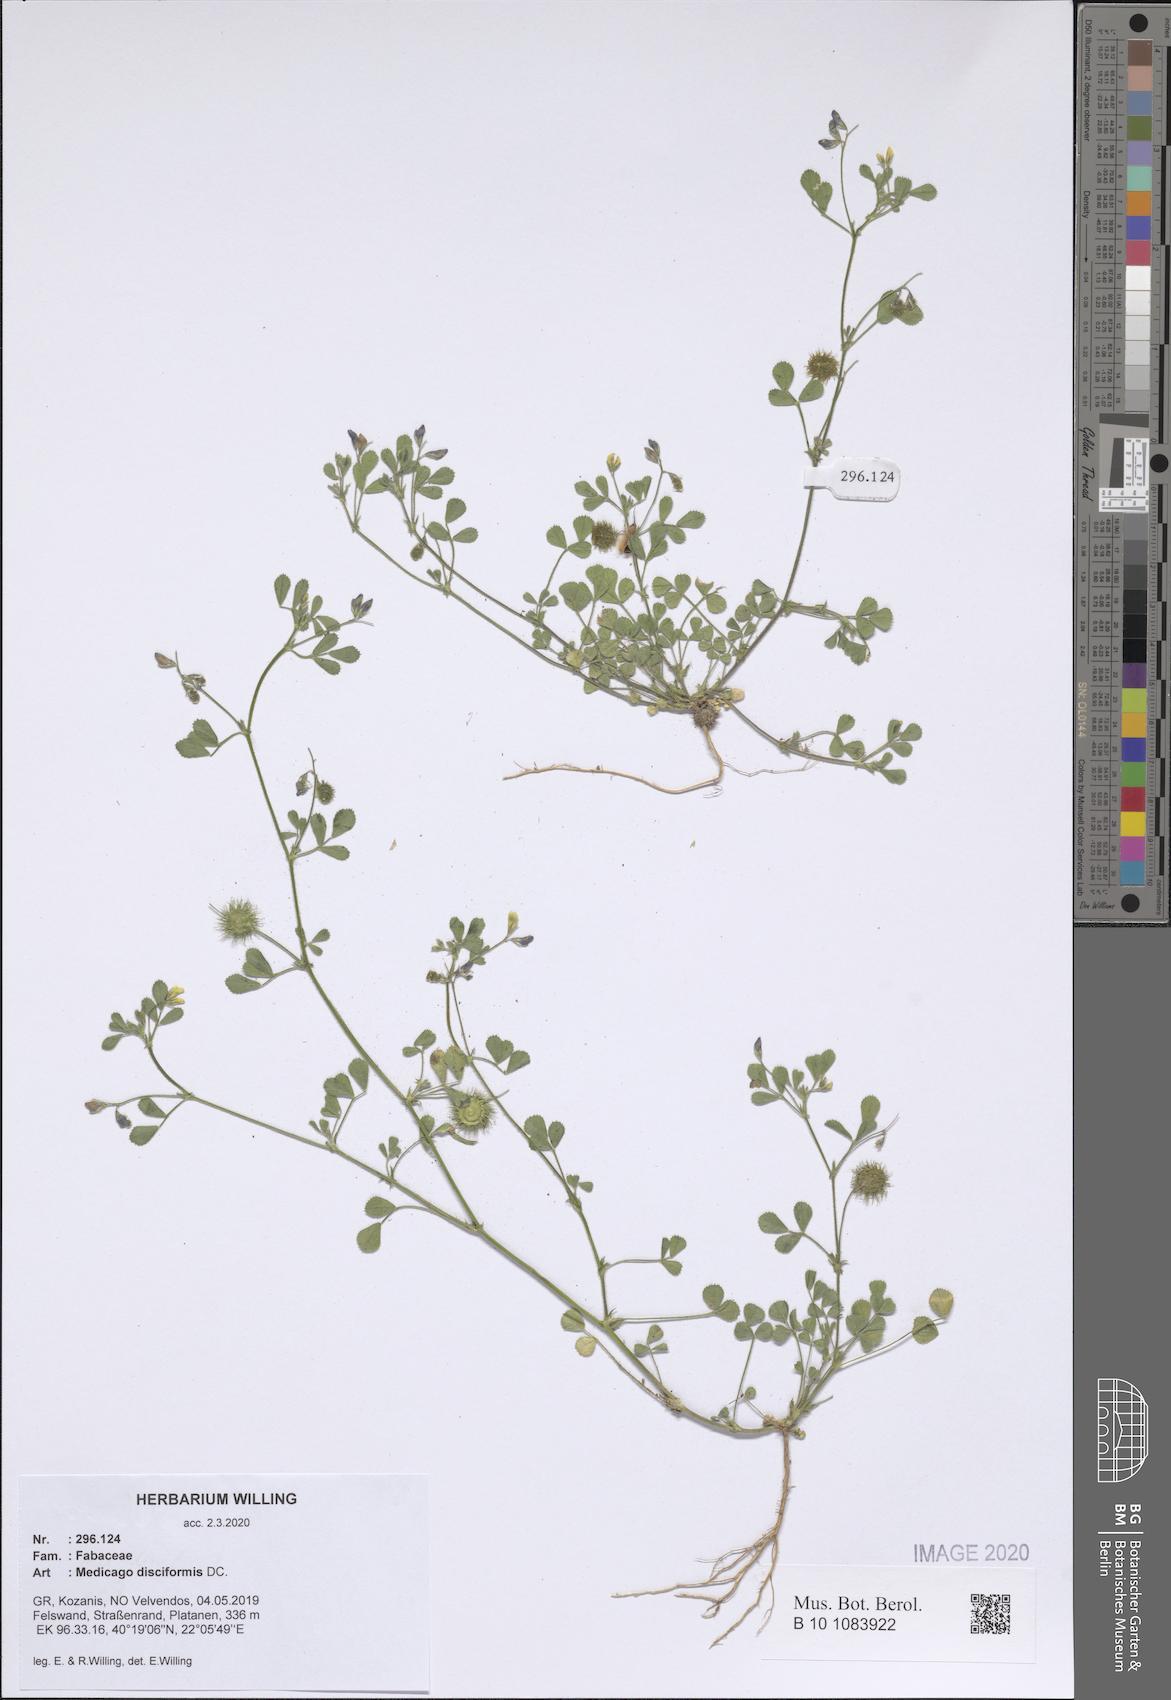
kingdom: Plantae
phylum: Tracheophyta
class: Magnoliopsida
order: Fabales
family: Fabaceae
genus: Medicago
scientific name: Medicago disciformis
